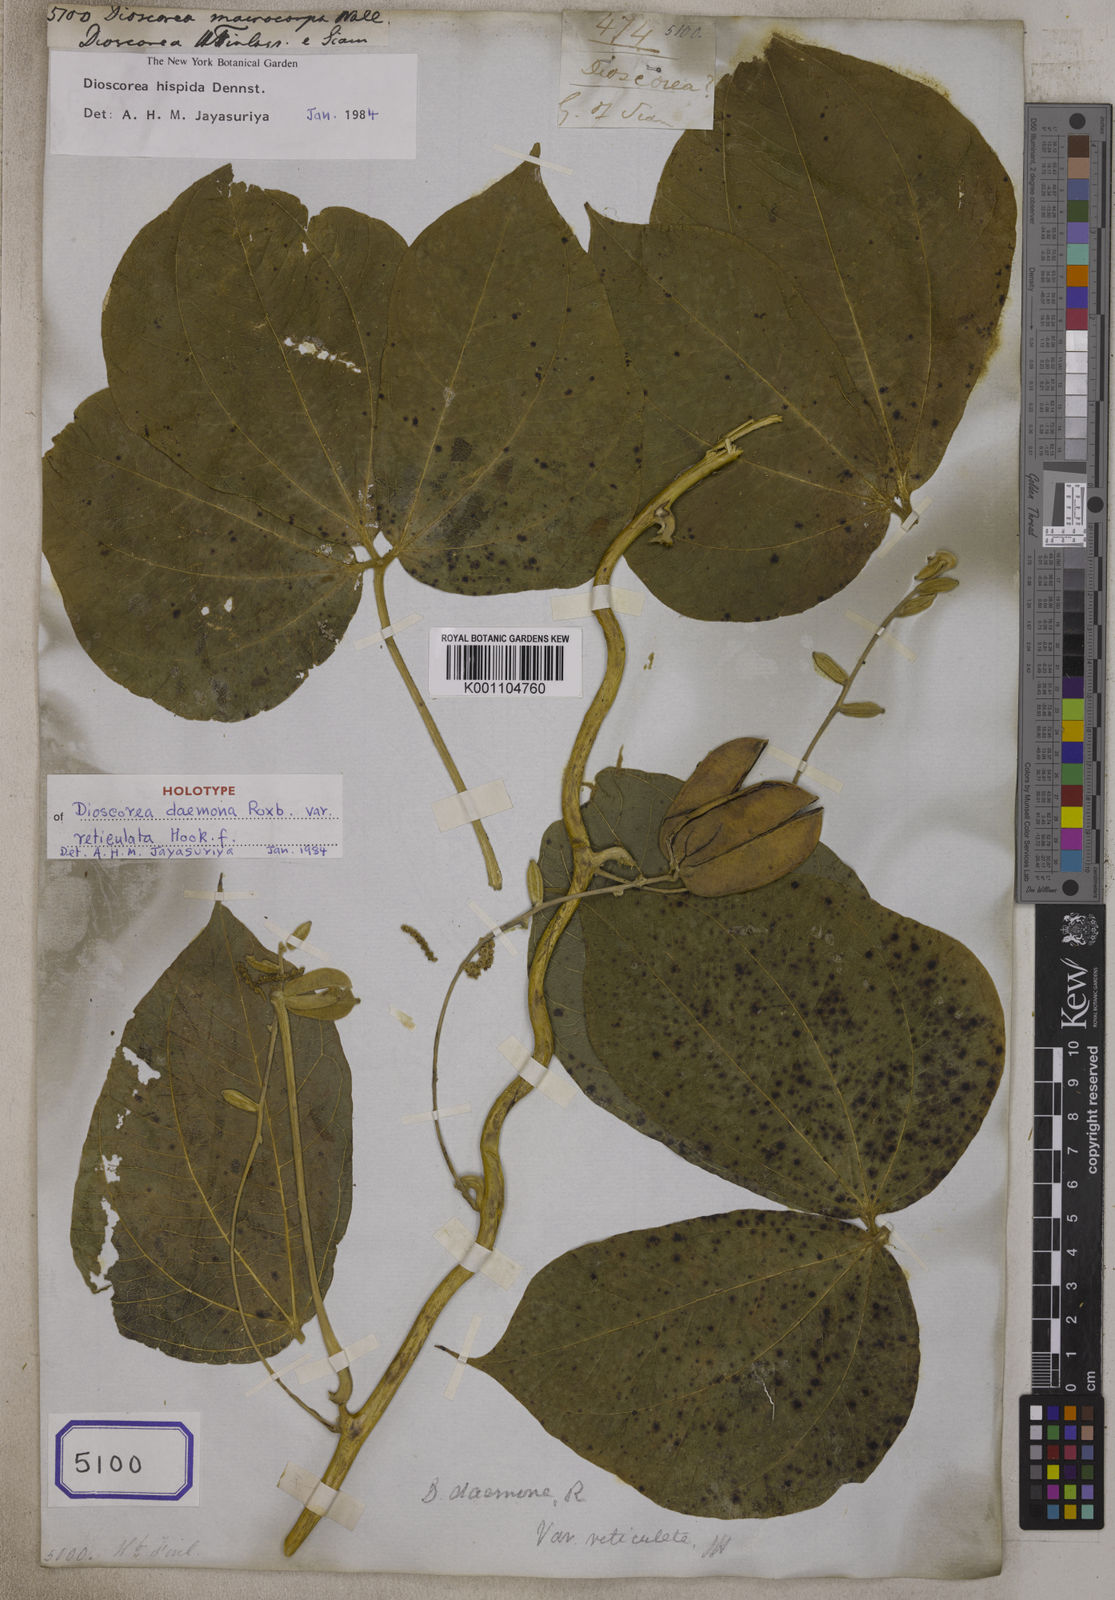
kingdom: Plantae
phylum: Tracheophyta
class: Liliopsida
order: Dioscoreales
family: Dioscoreaceae
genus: Dioscorea
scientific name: Dioscorea
